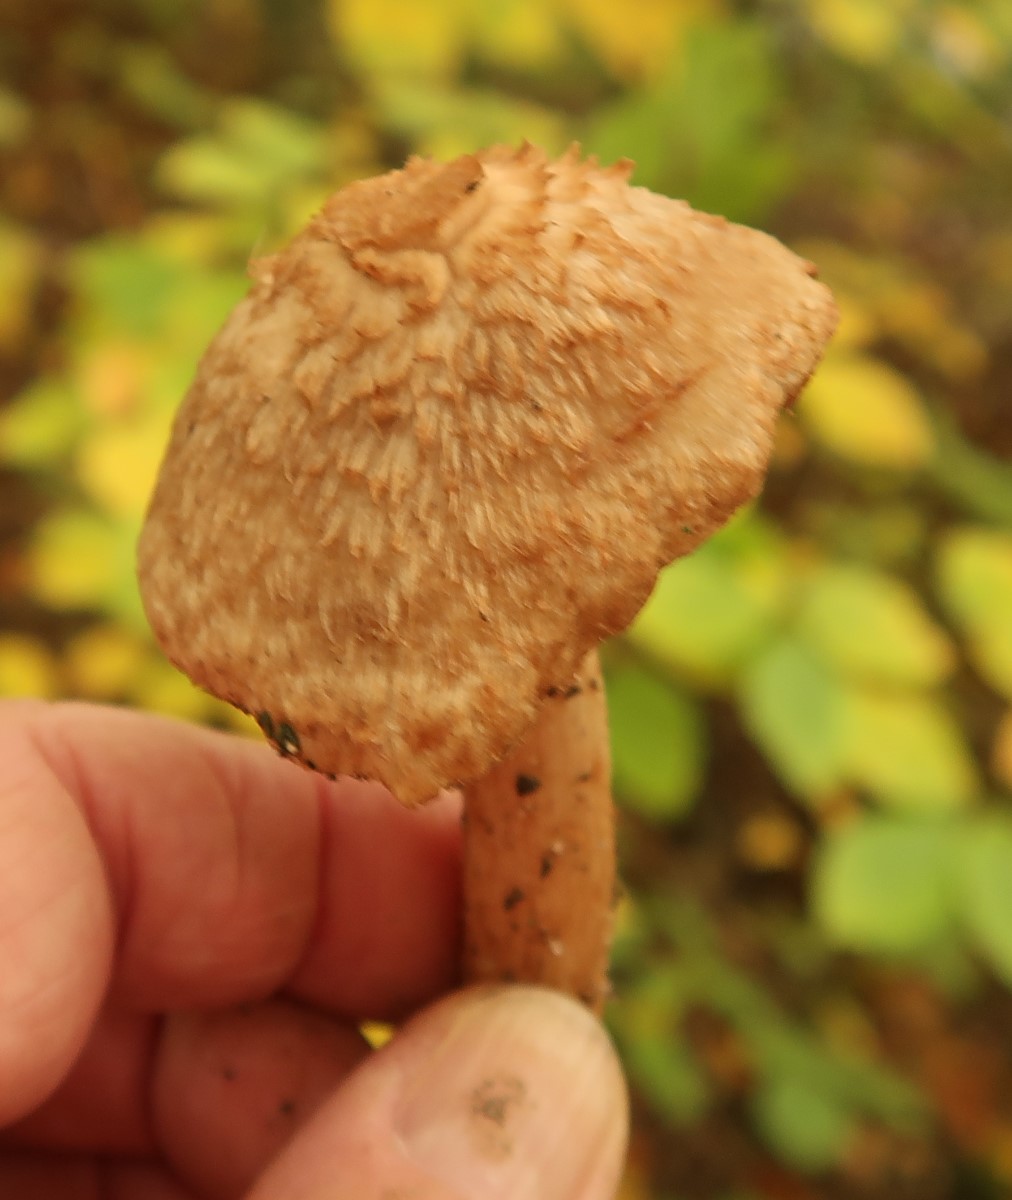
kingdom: Fungi
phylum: Basidiomycota
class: Agaricomycetes
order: Agaricales
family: Inocybaceae
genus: Inosperma
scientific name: Inosperma bongardii
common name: Bongards trævlhat
